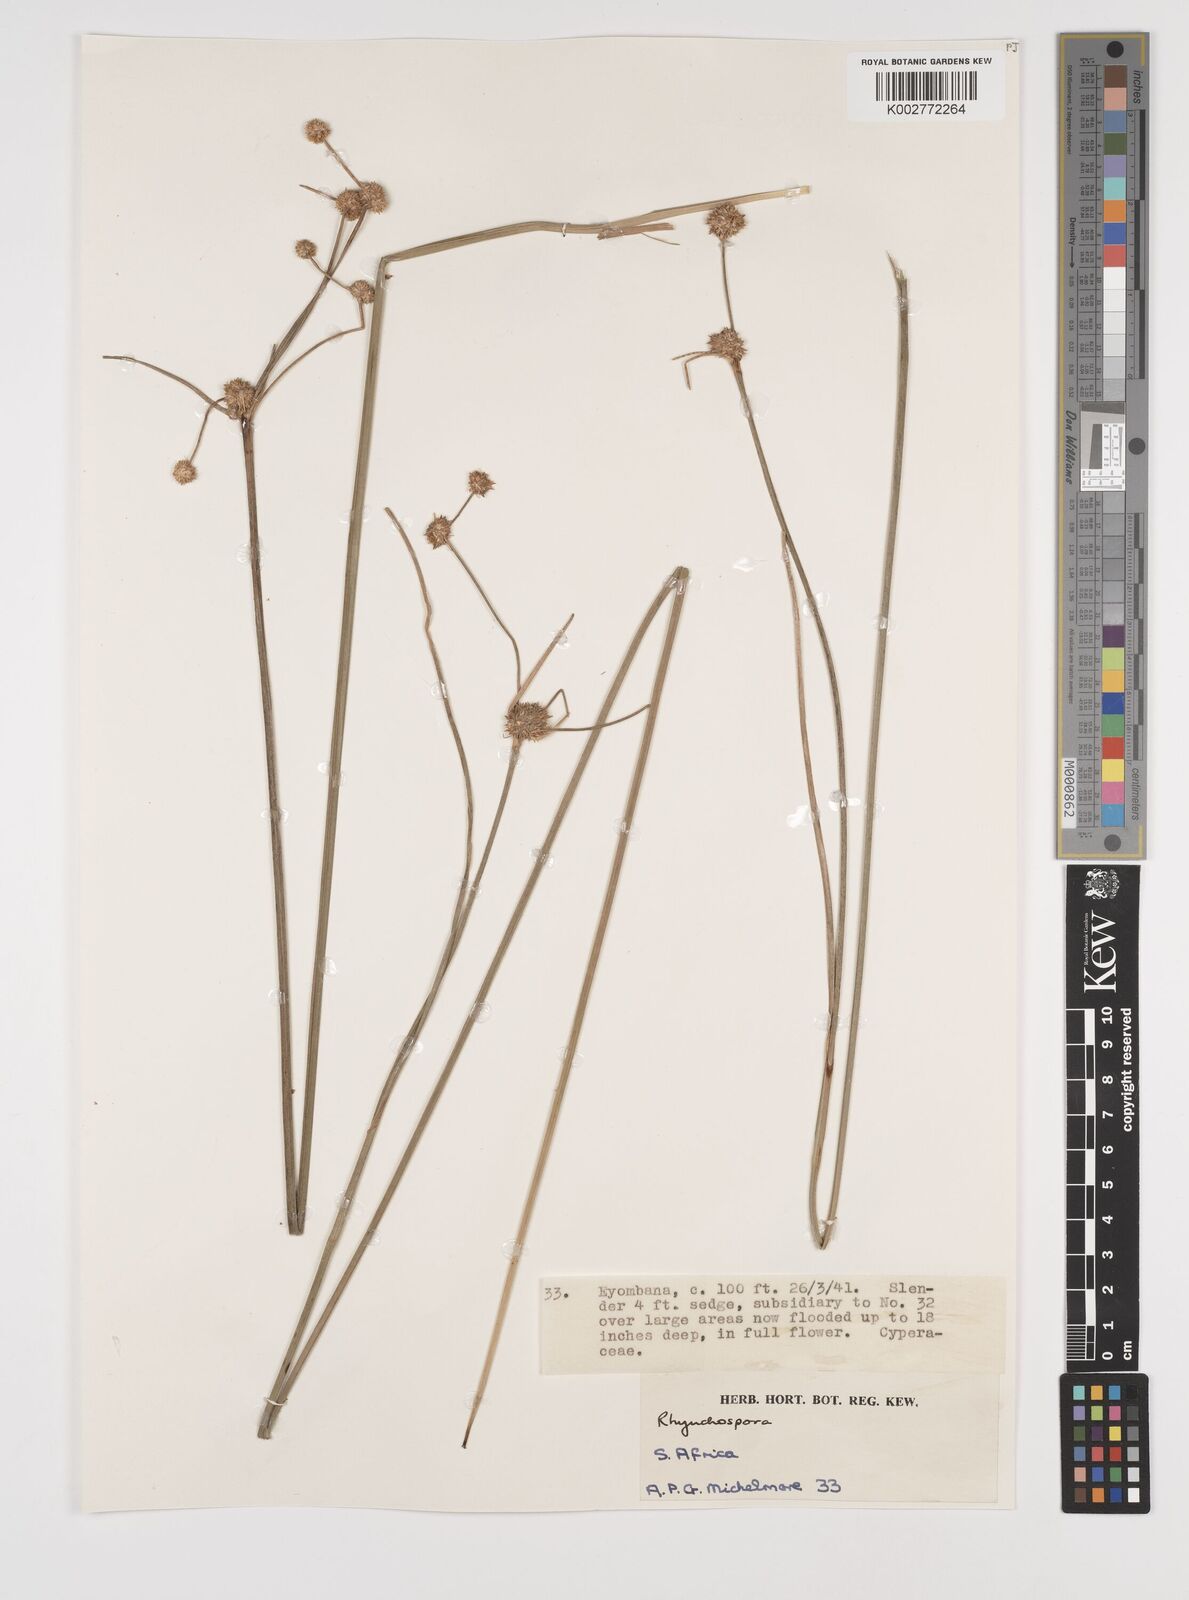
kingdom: Plantae
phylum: Tracheophyta
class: Liliopsida
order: Poales
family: Cyperaceae
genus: Rhynchospora
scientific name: Rhynchospora holoschoenoides
